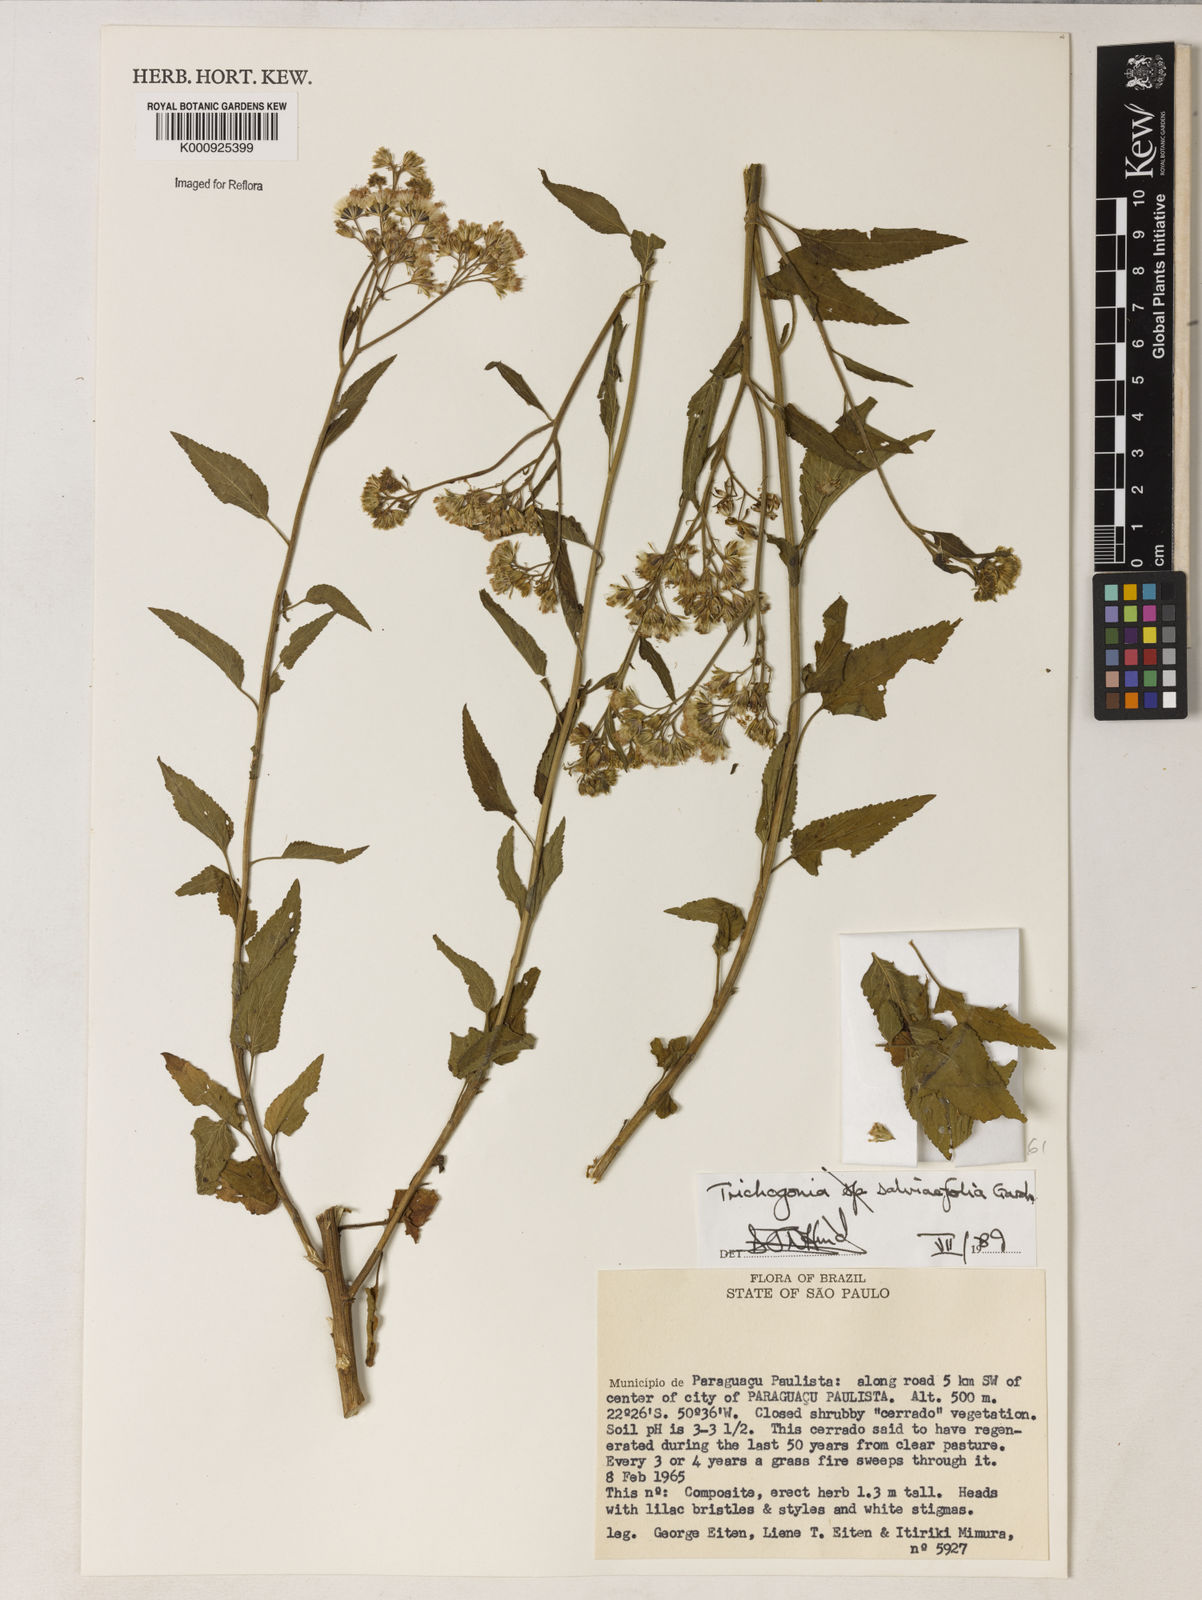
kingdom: Plantae
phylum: Tracheophyta
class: Magnoliopsida
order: Asterales
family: Asteraceae
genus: Trichogonia
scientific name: Trichogonia
